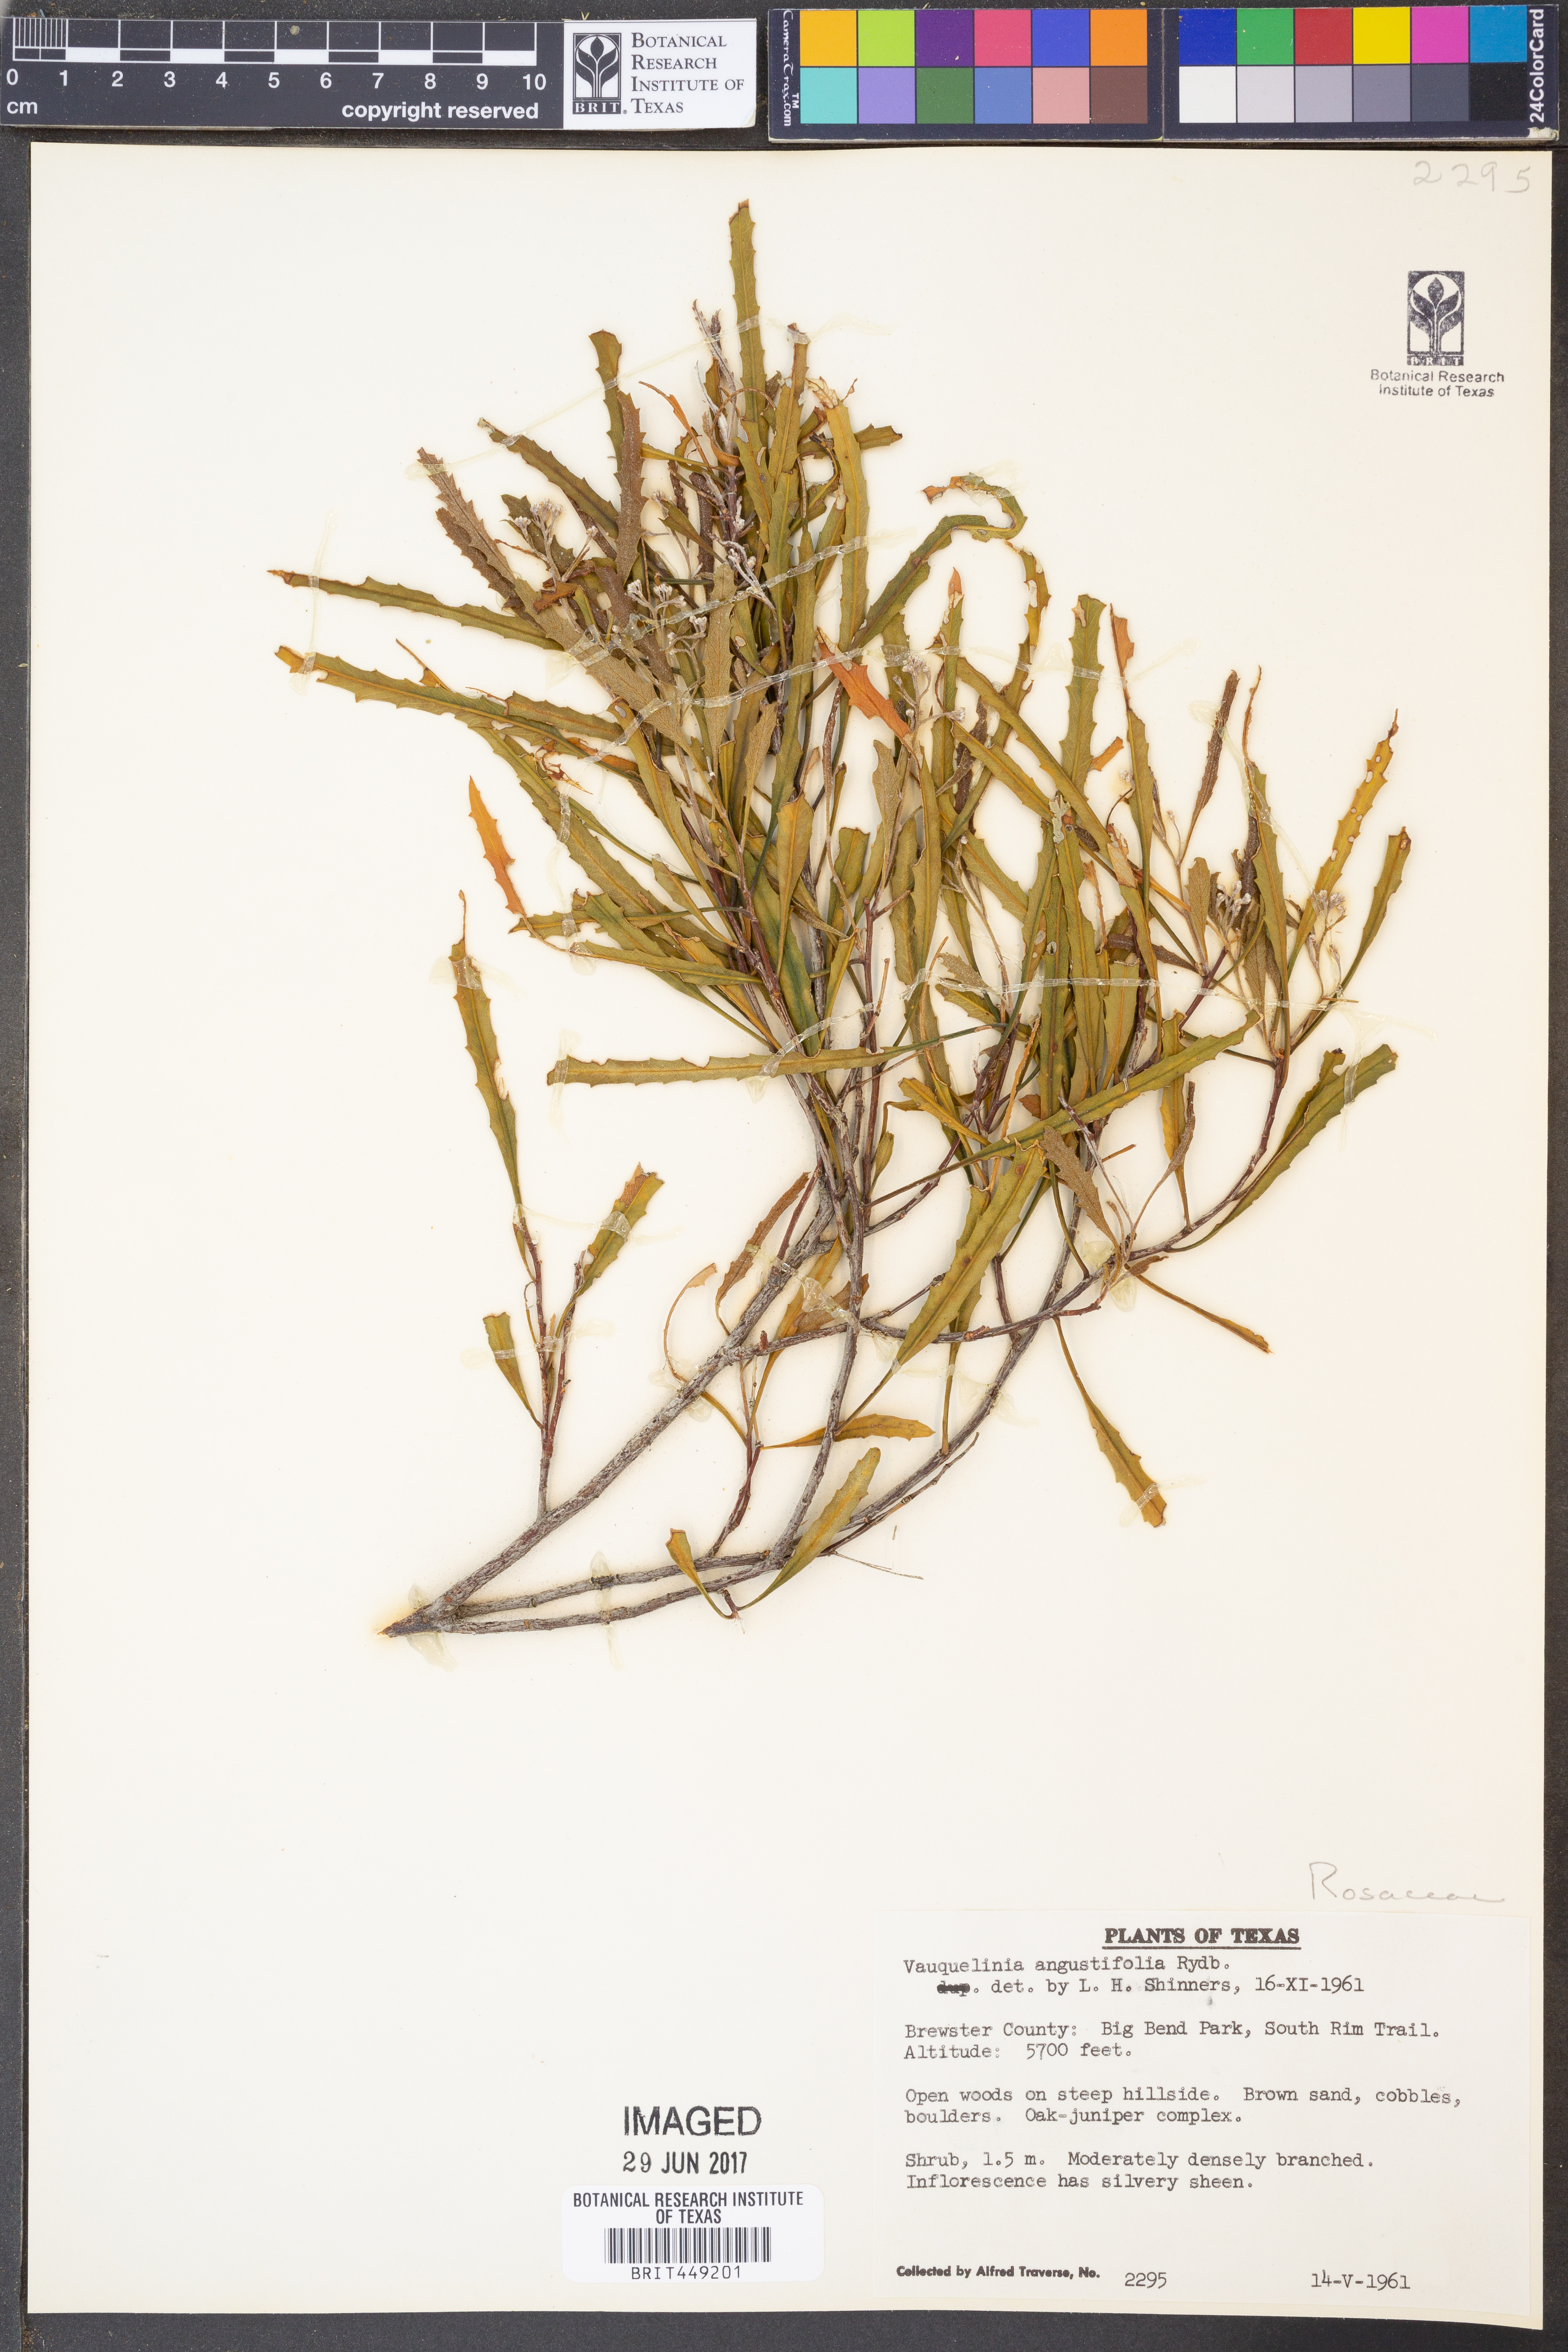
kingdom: Plantae
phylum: Tracheophyta
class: Magnoliopsida
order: Rosales
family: Rosaceae
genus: Vauquelinia
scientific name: Vauquelinia corymbosa
